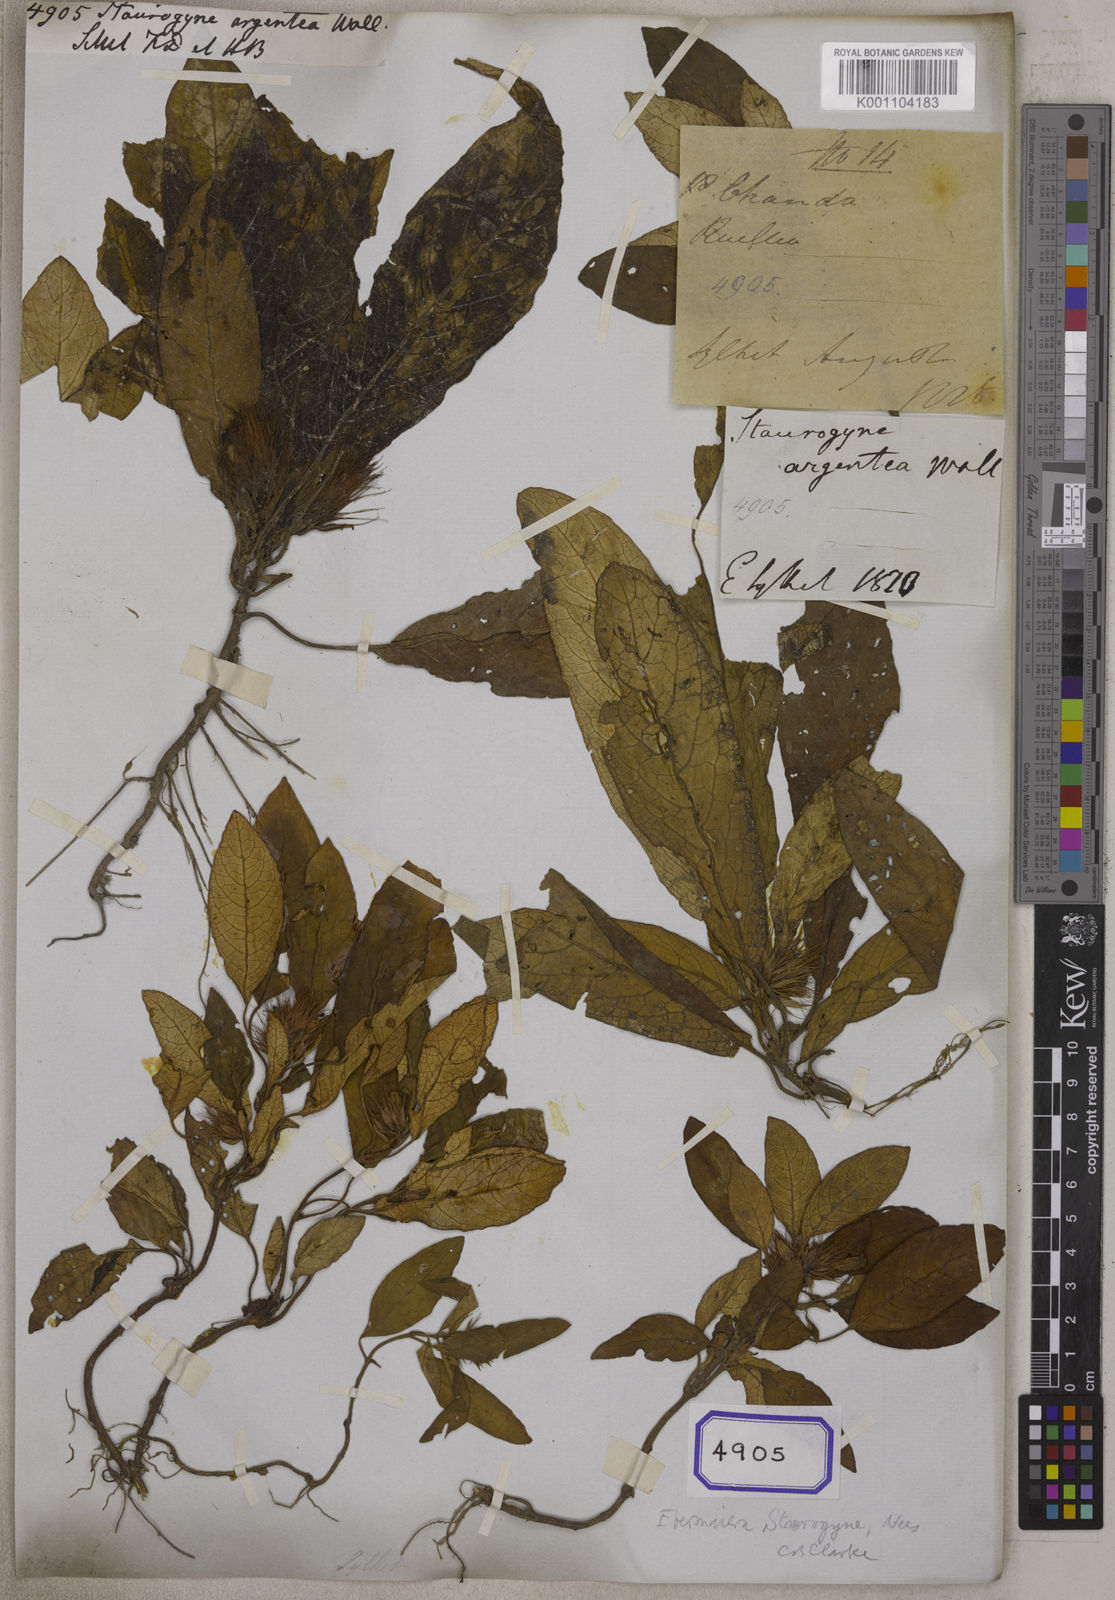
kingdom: Plantae
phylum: Tracheophyta
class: Magnoliopsida
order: Lamiales
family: Acanthaceae
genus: Staurogyne
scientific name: Staurogyne argentea
